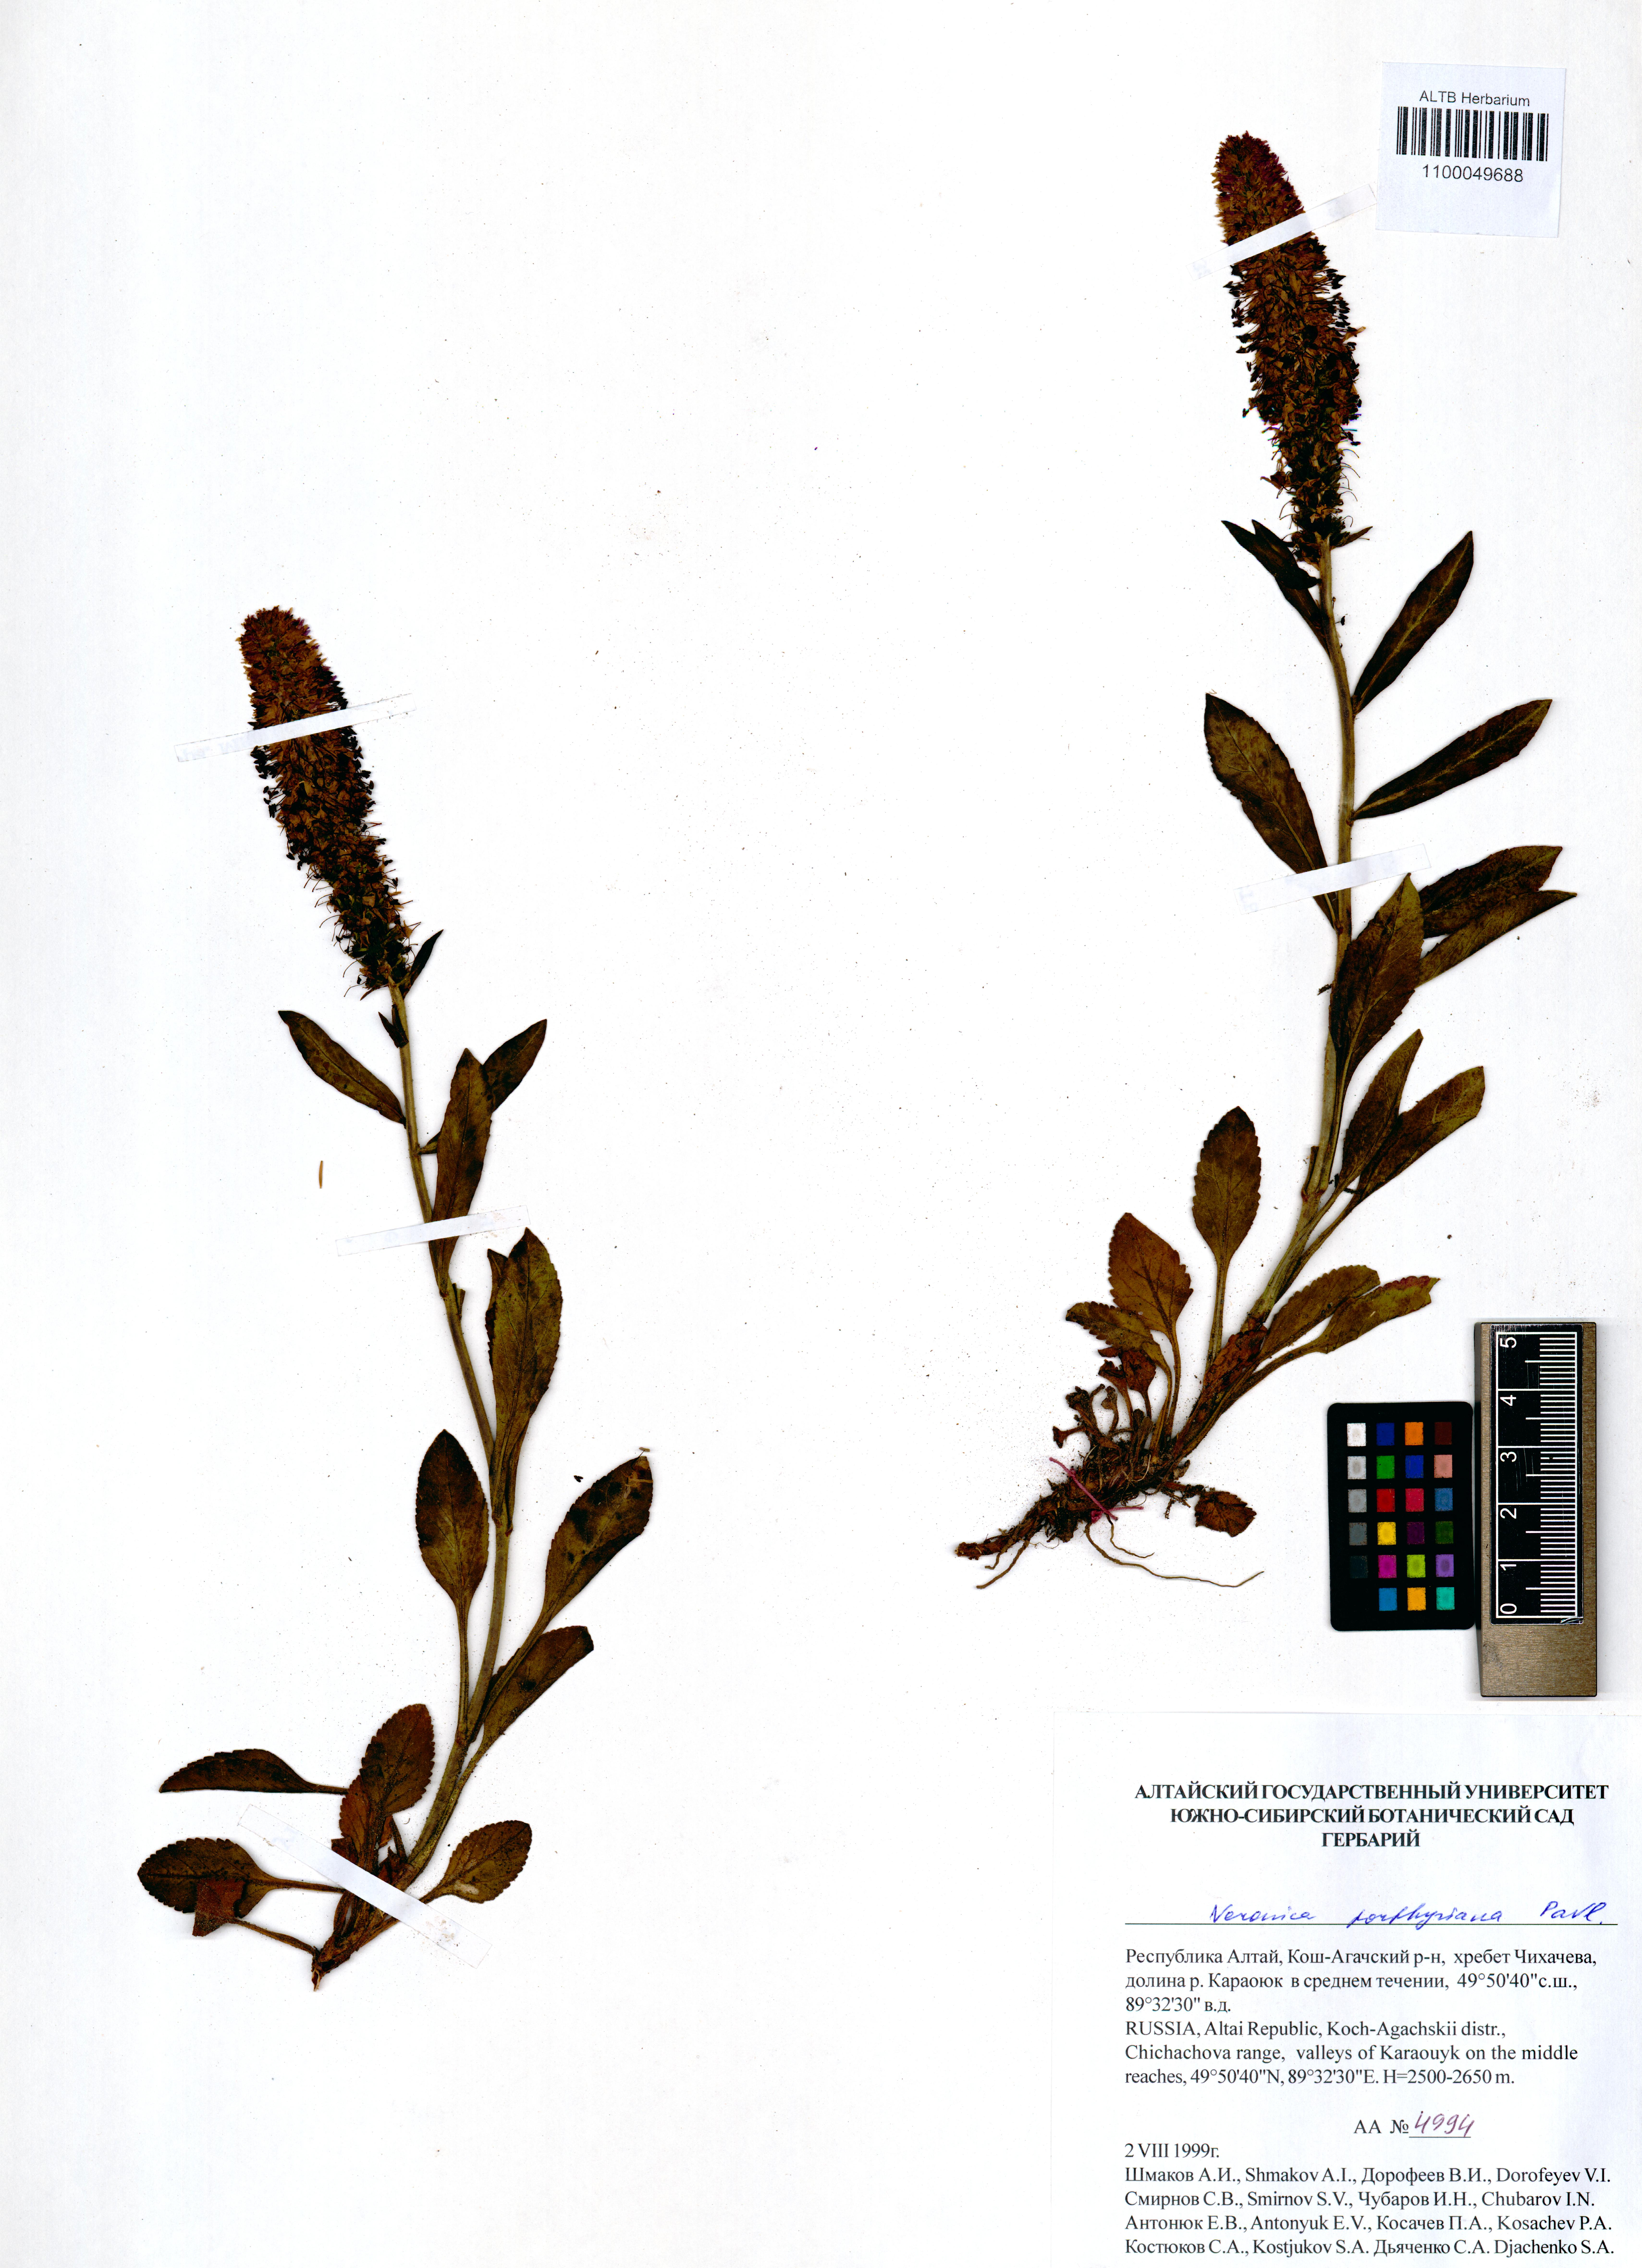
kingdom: Plantae
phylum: Tracheophyta
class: Magnoliopsida
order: Lamiales
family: Plantaginaceae
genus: Veronica
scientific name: Veronica porphyriana
